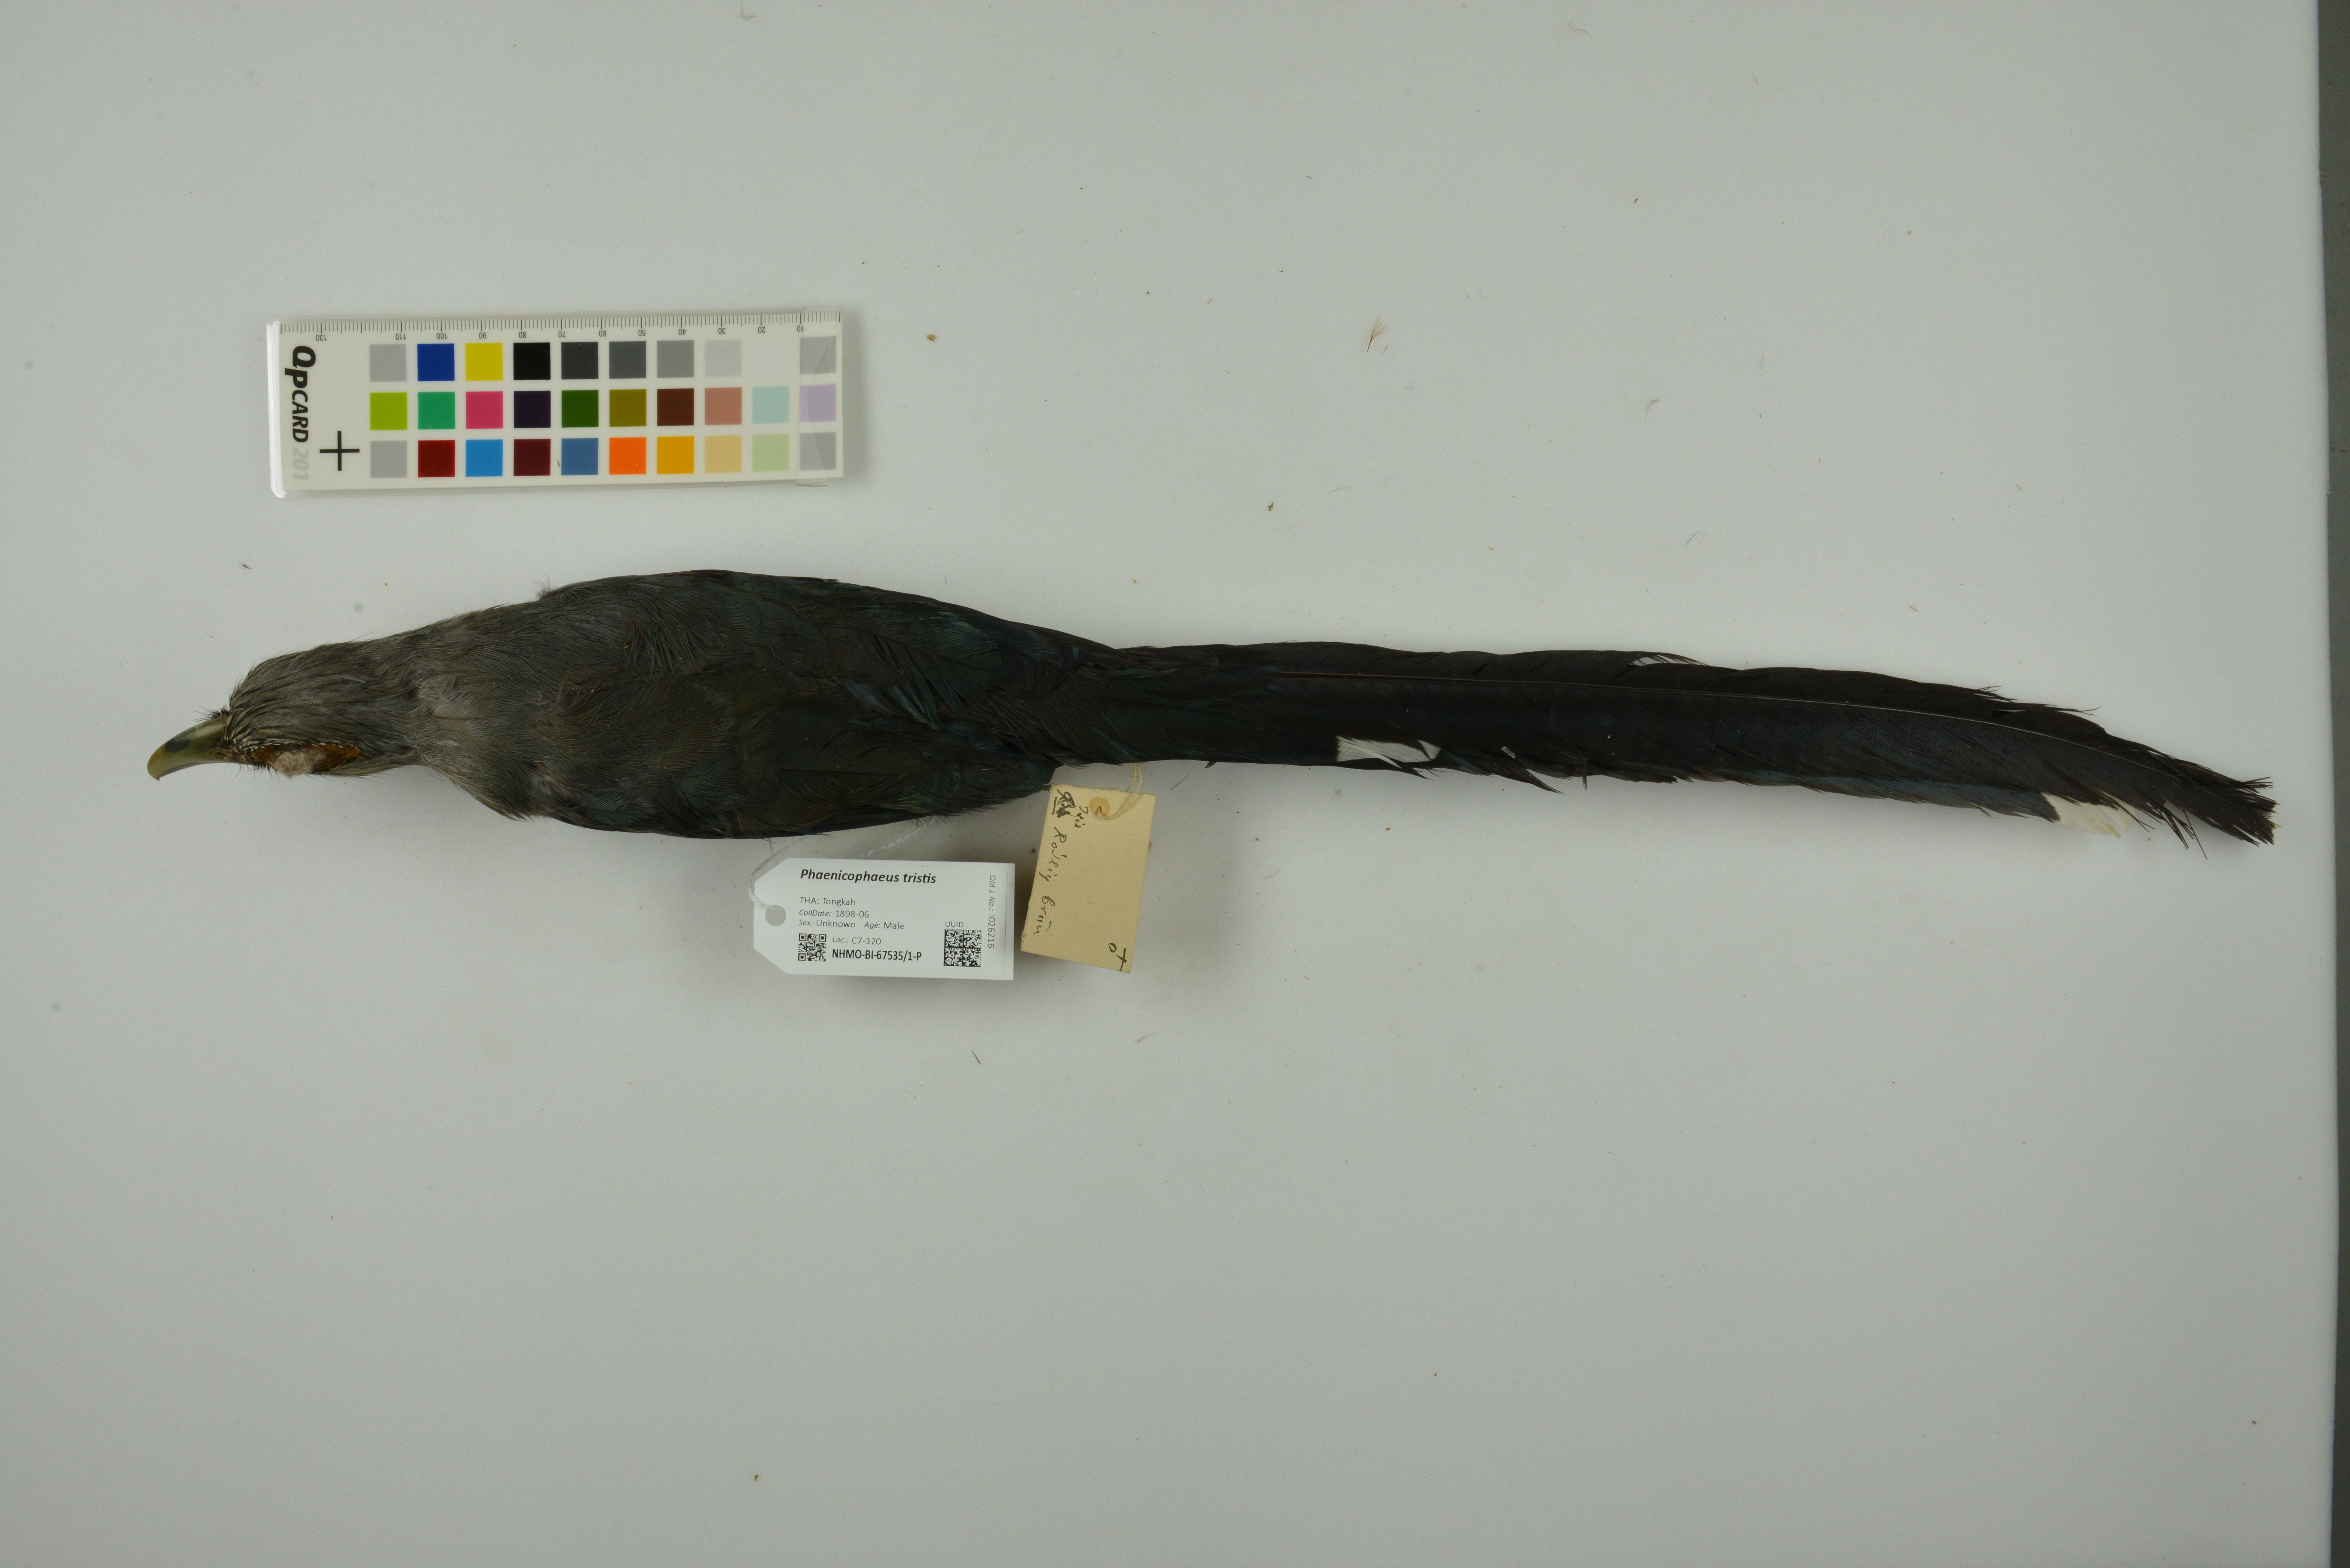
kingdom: Animalia
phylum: Chordata
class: Aves
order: Cuculiformes
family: Cuculidae
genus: Rhopodytes
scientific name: Rhopodytes tristis
